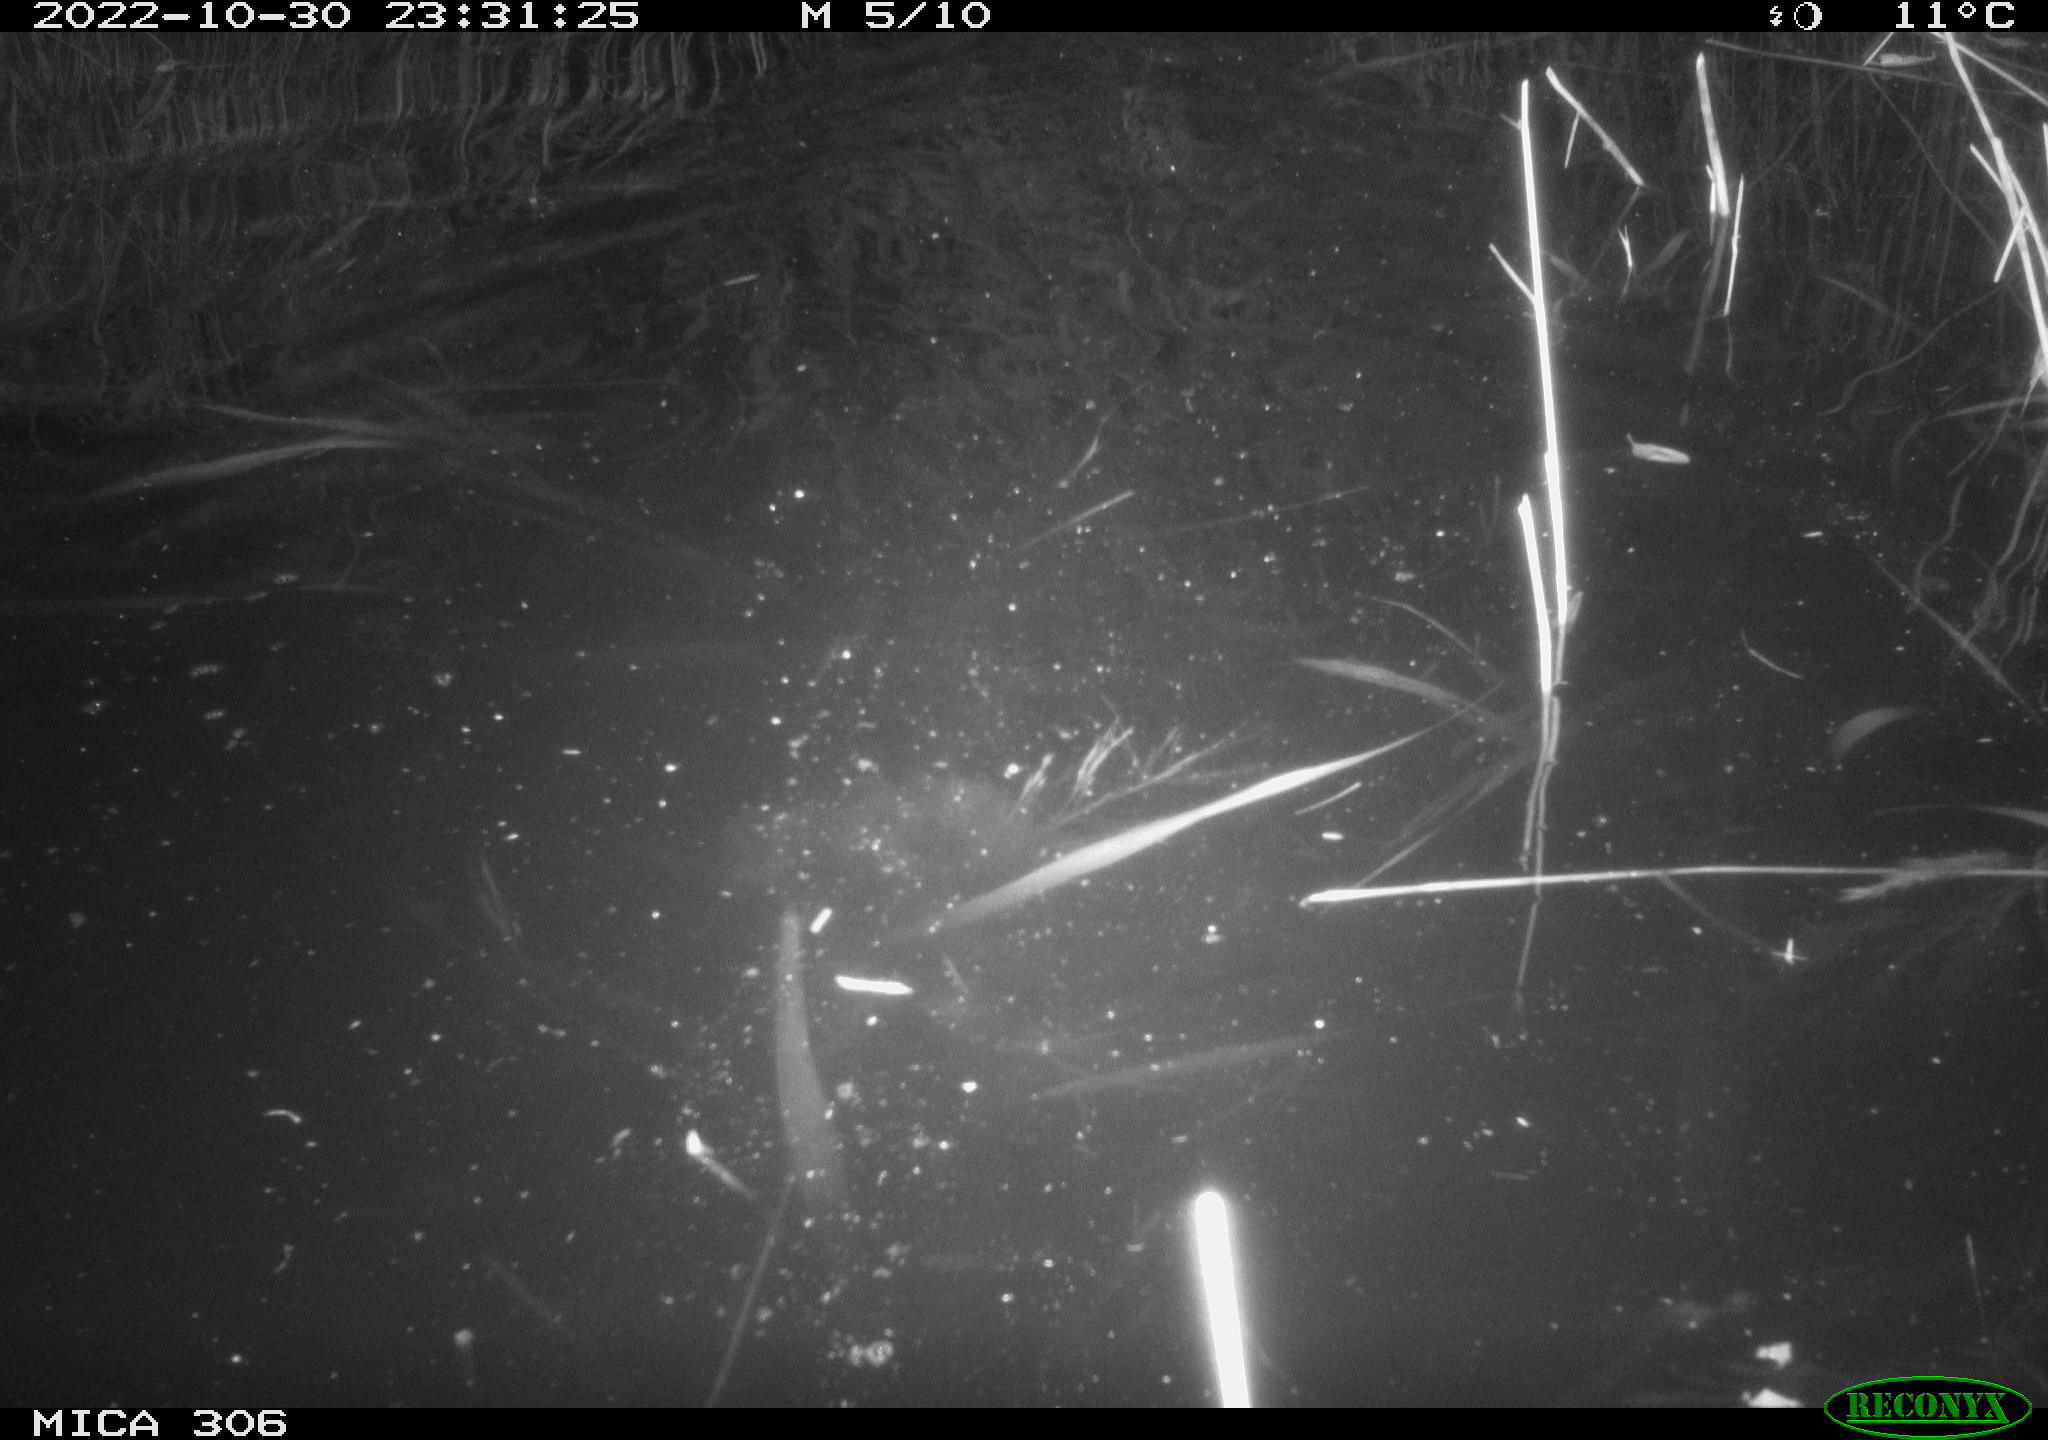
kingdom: Animalia
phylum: Chordata
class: Mammalia
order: Rodentia
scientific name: Rodentia
